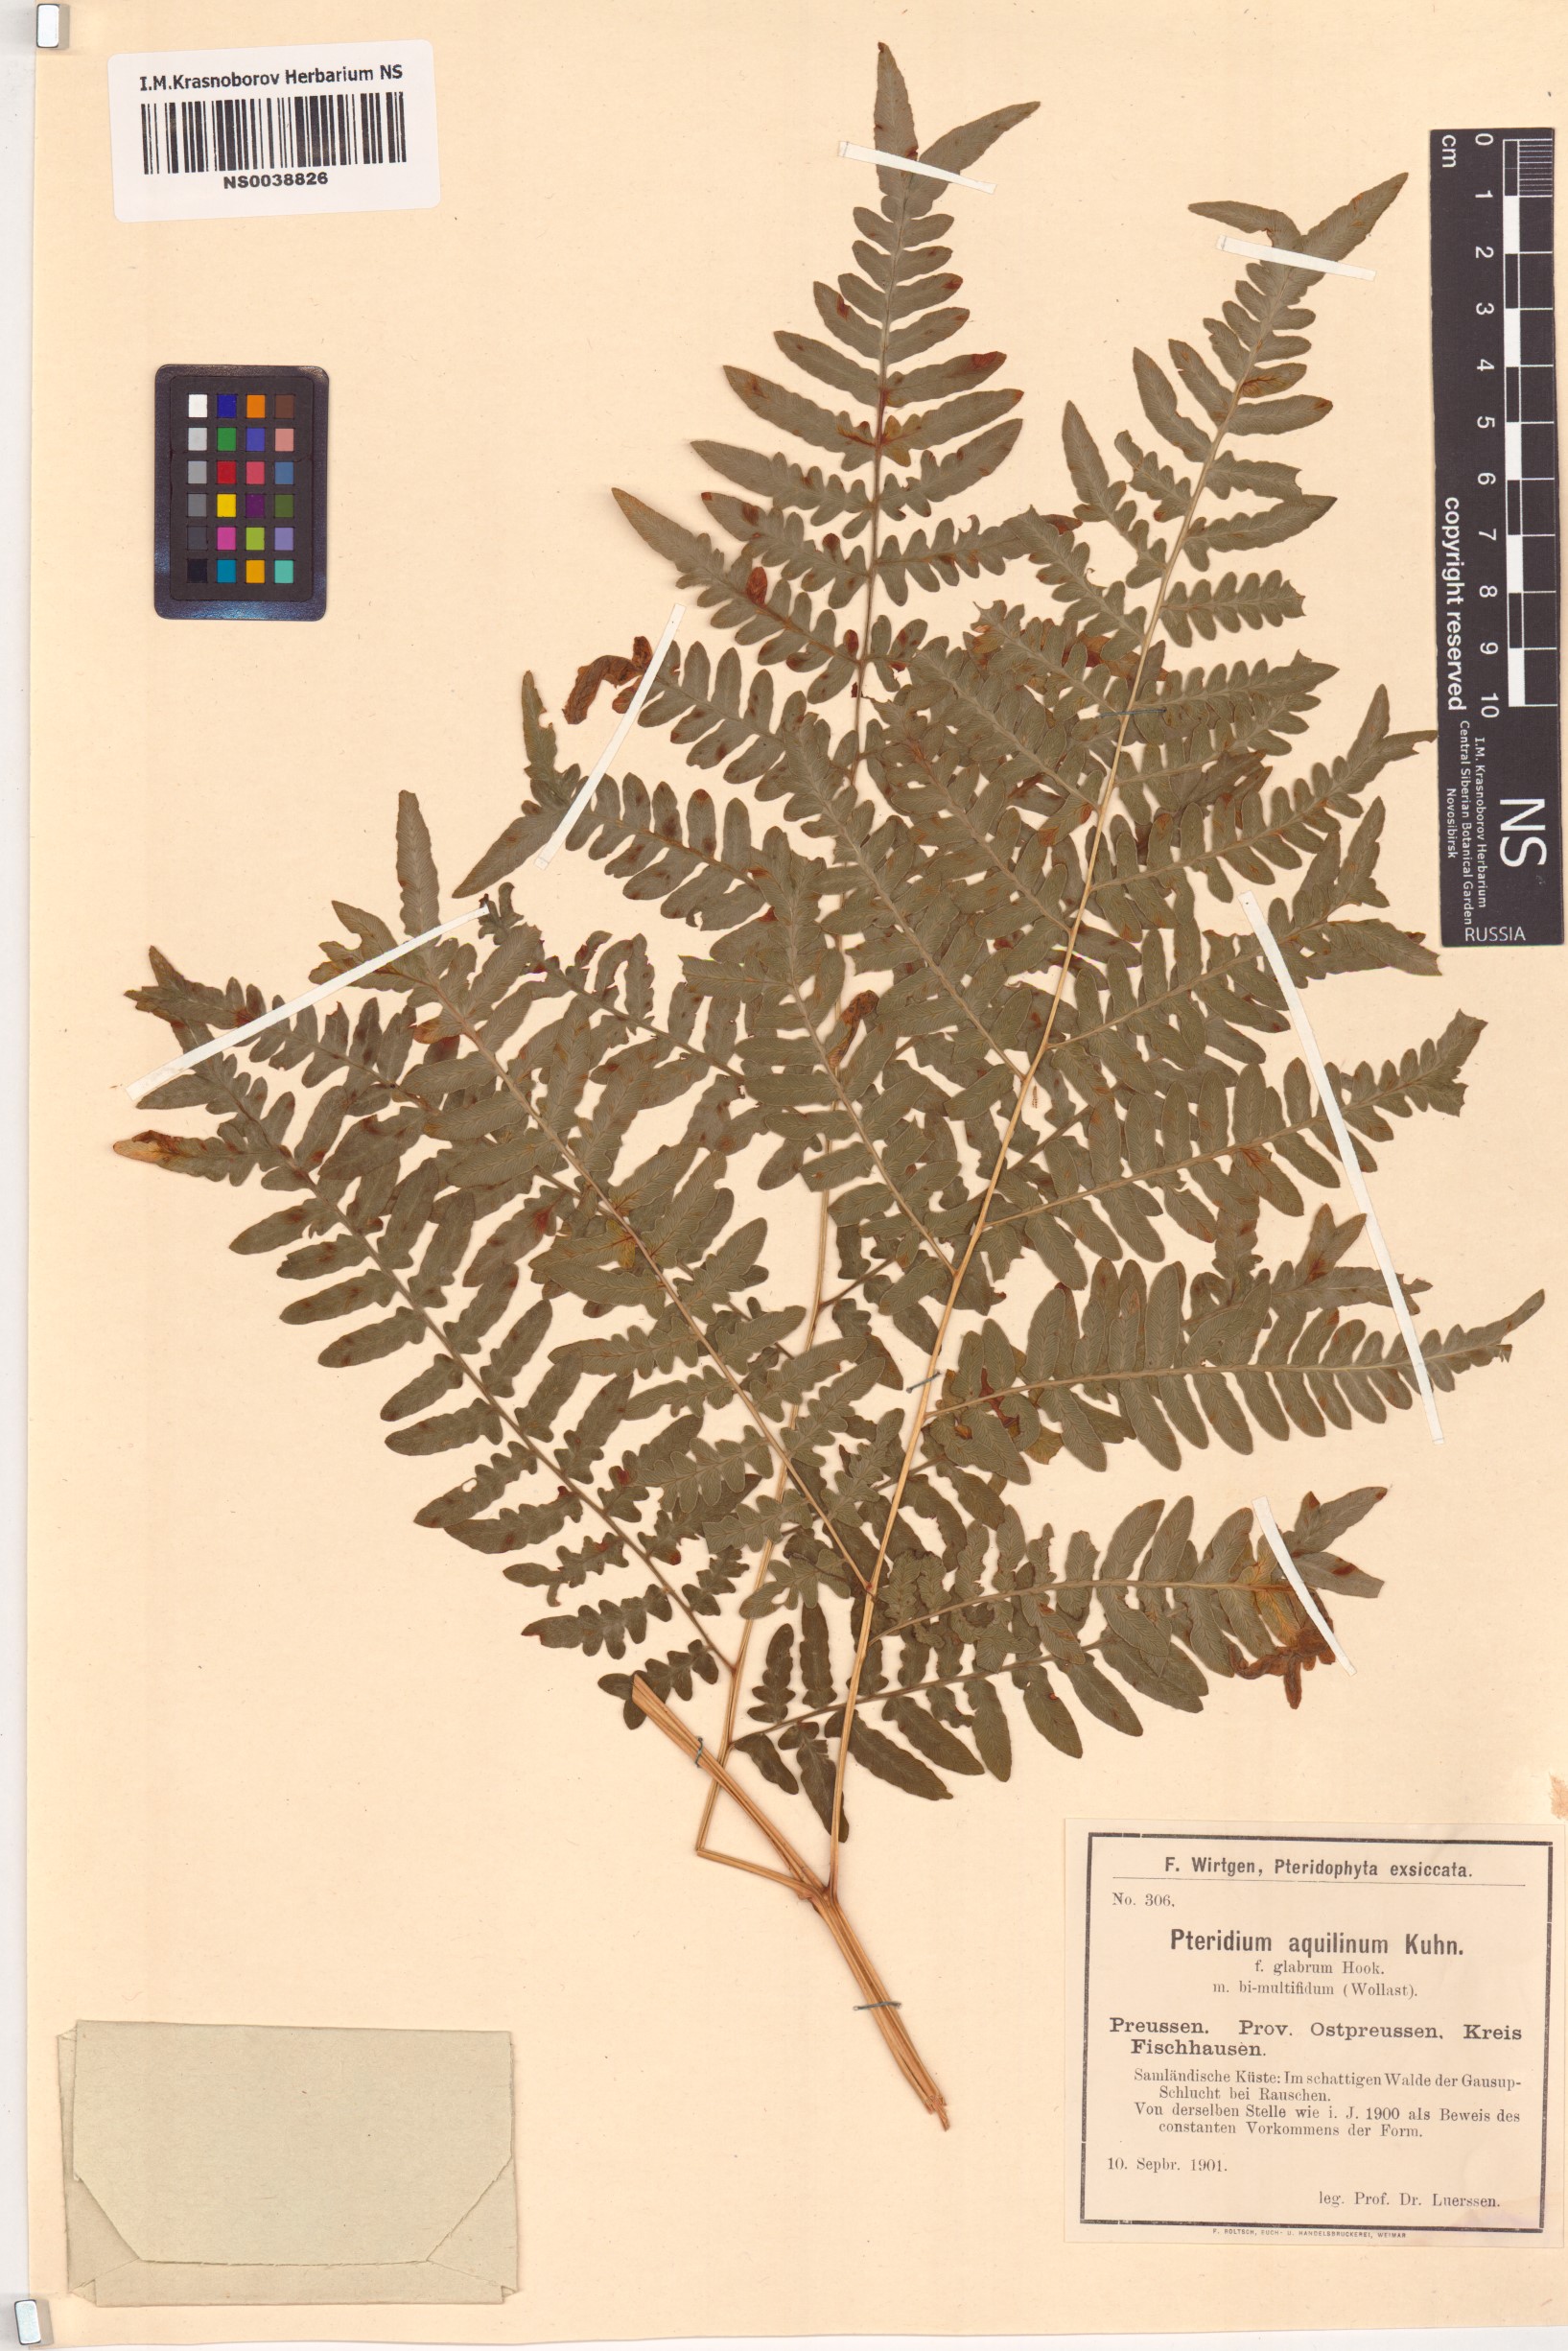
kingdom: Plantae
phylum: Tracheophyta
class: Polypodiopsida
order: Polypodiales
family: Dennstaedtiaceae
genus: Pteridium
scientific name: Pteridium aquilinum
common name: Bracken
